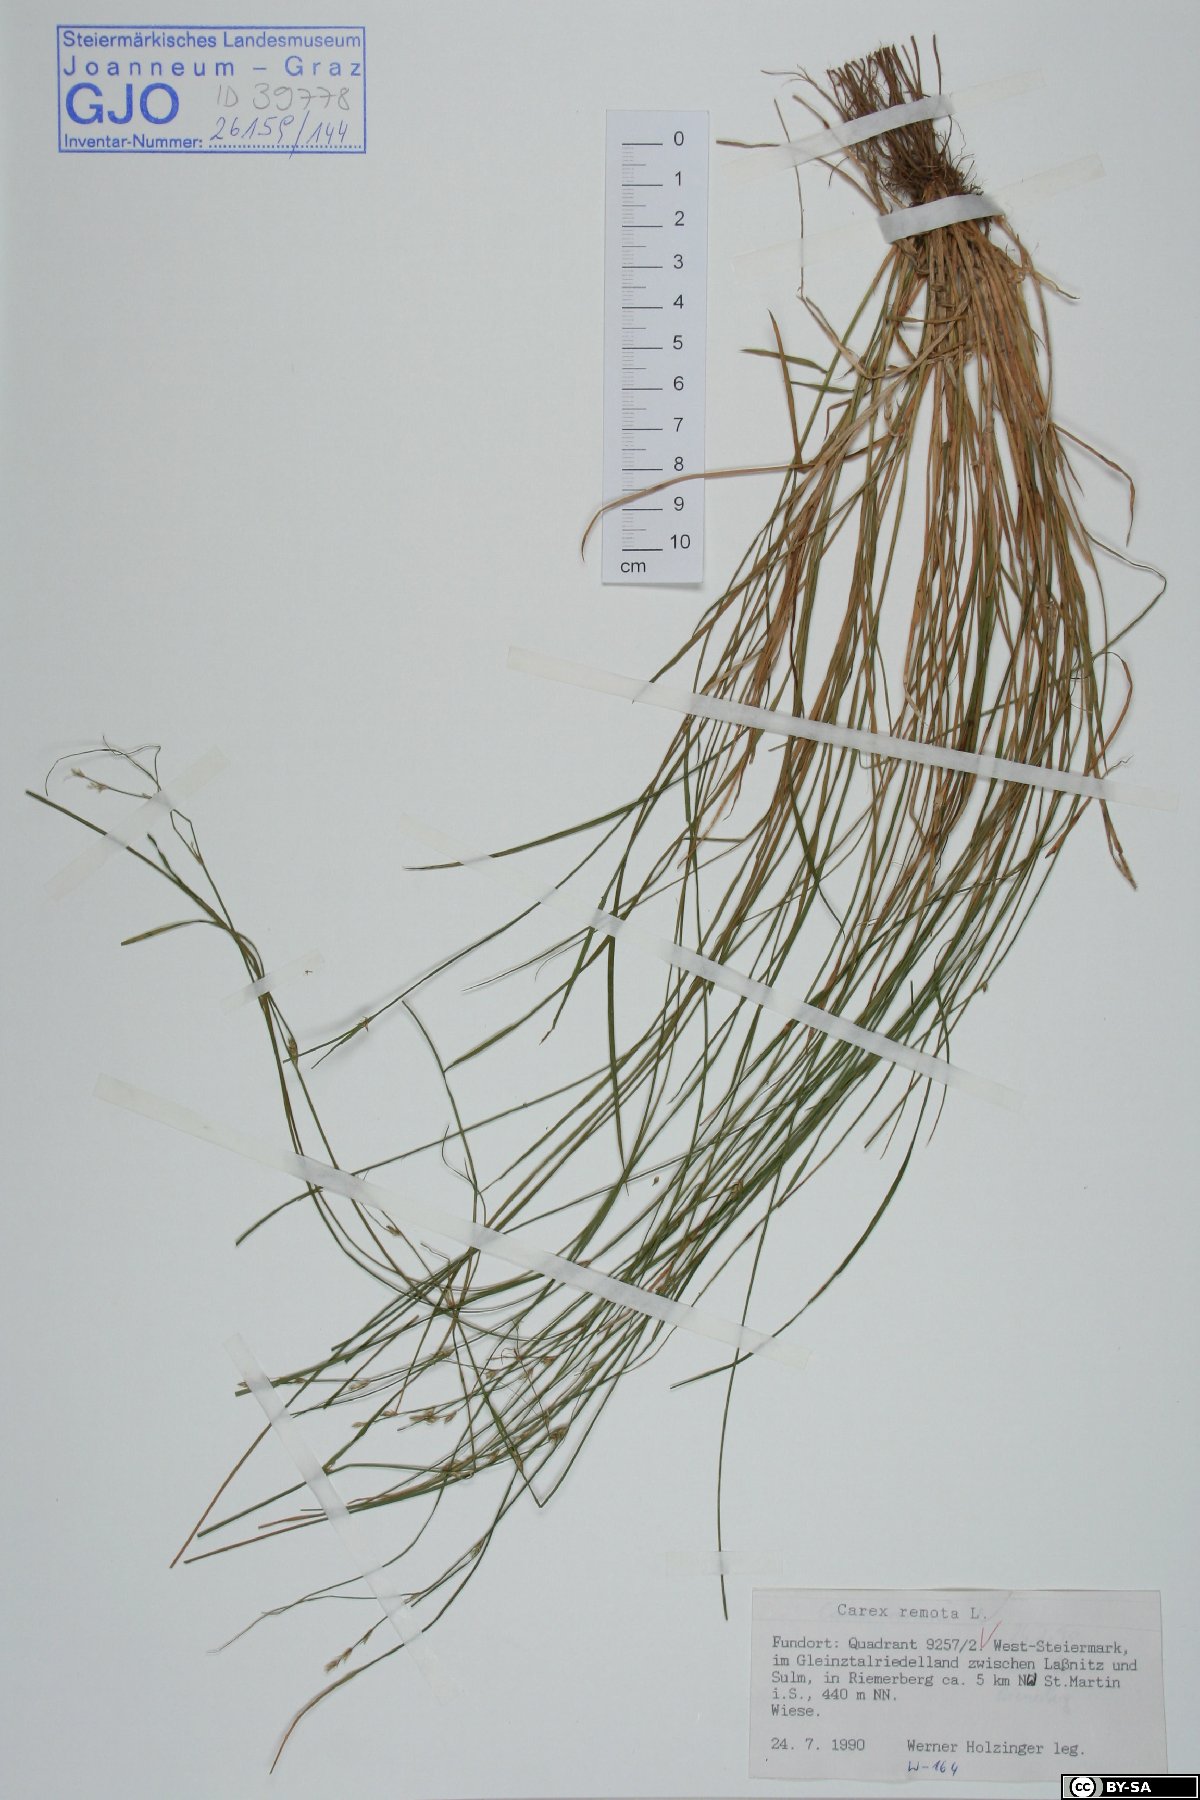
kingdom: Plantae
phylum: Tracheophyta
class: Liliopsida
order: Poales
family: Cyperaceae
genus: Carex
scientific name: Carex remota
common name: Remote sedge
